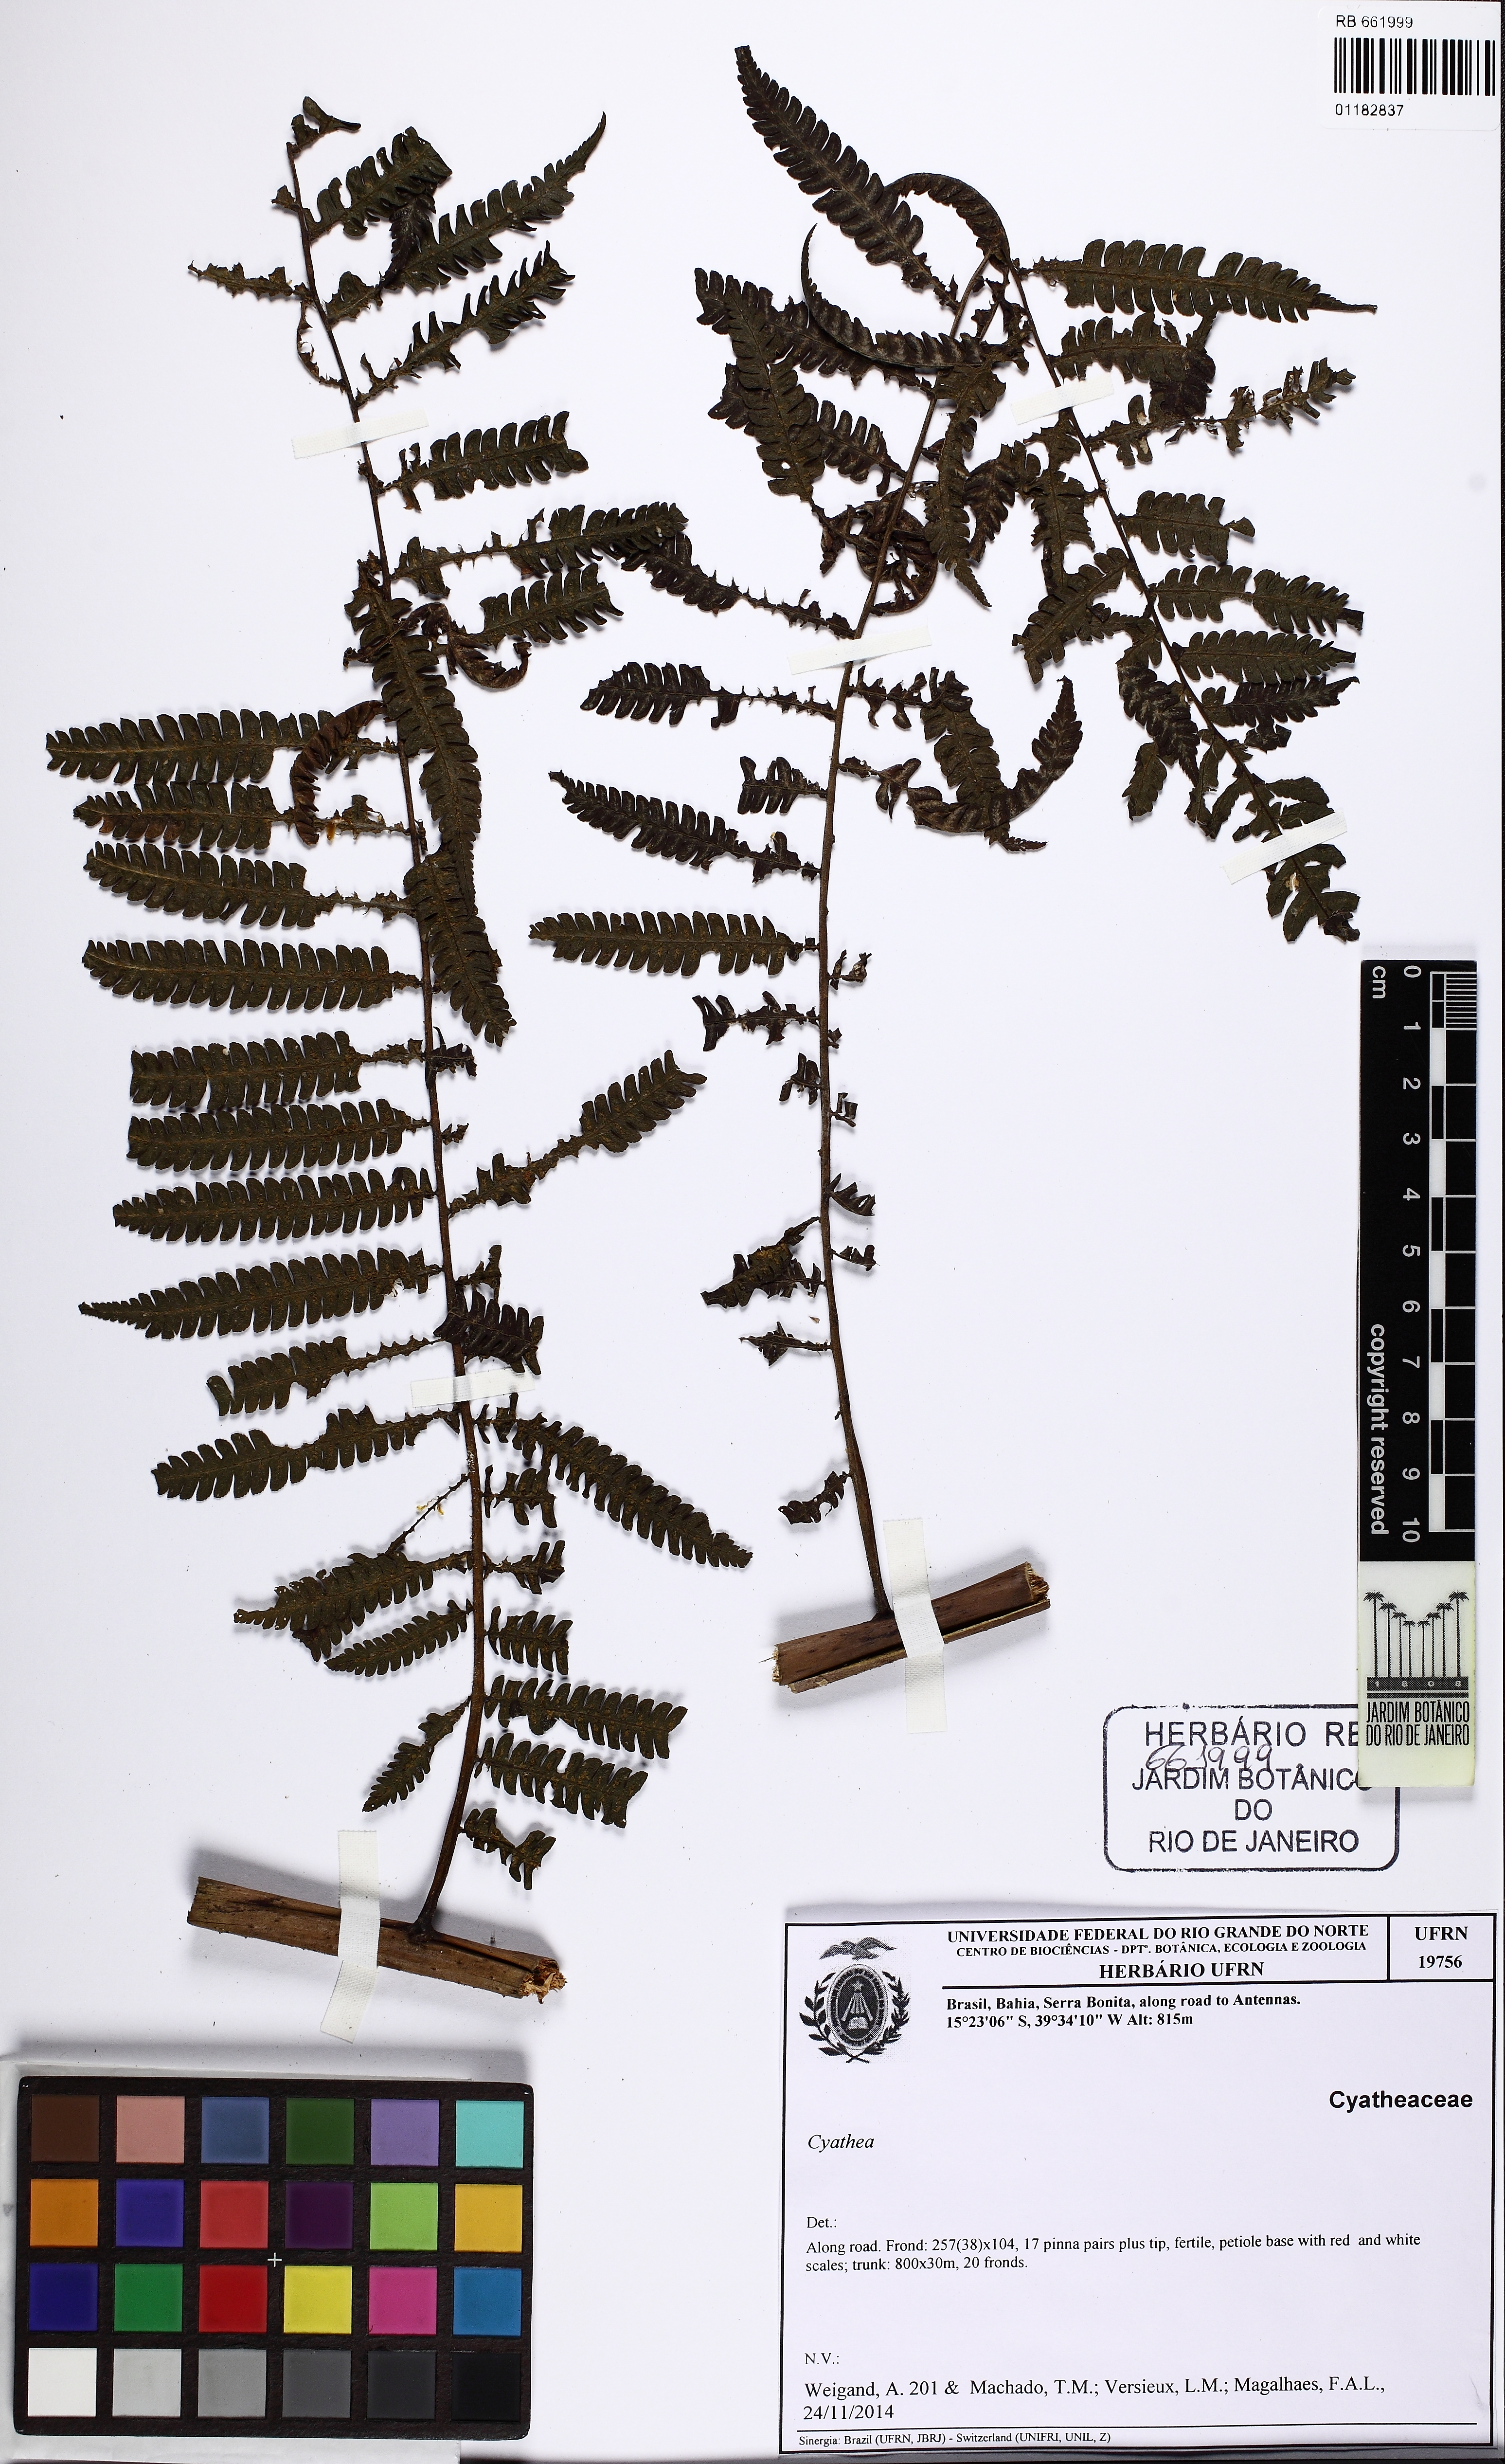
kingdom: Plantae
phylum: Tracheophyta
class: Polypodiopsida
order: Cyatheales
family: Cyatheaceae
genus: Cyathea
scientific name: Cyathea
